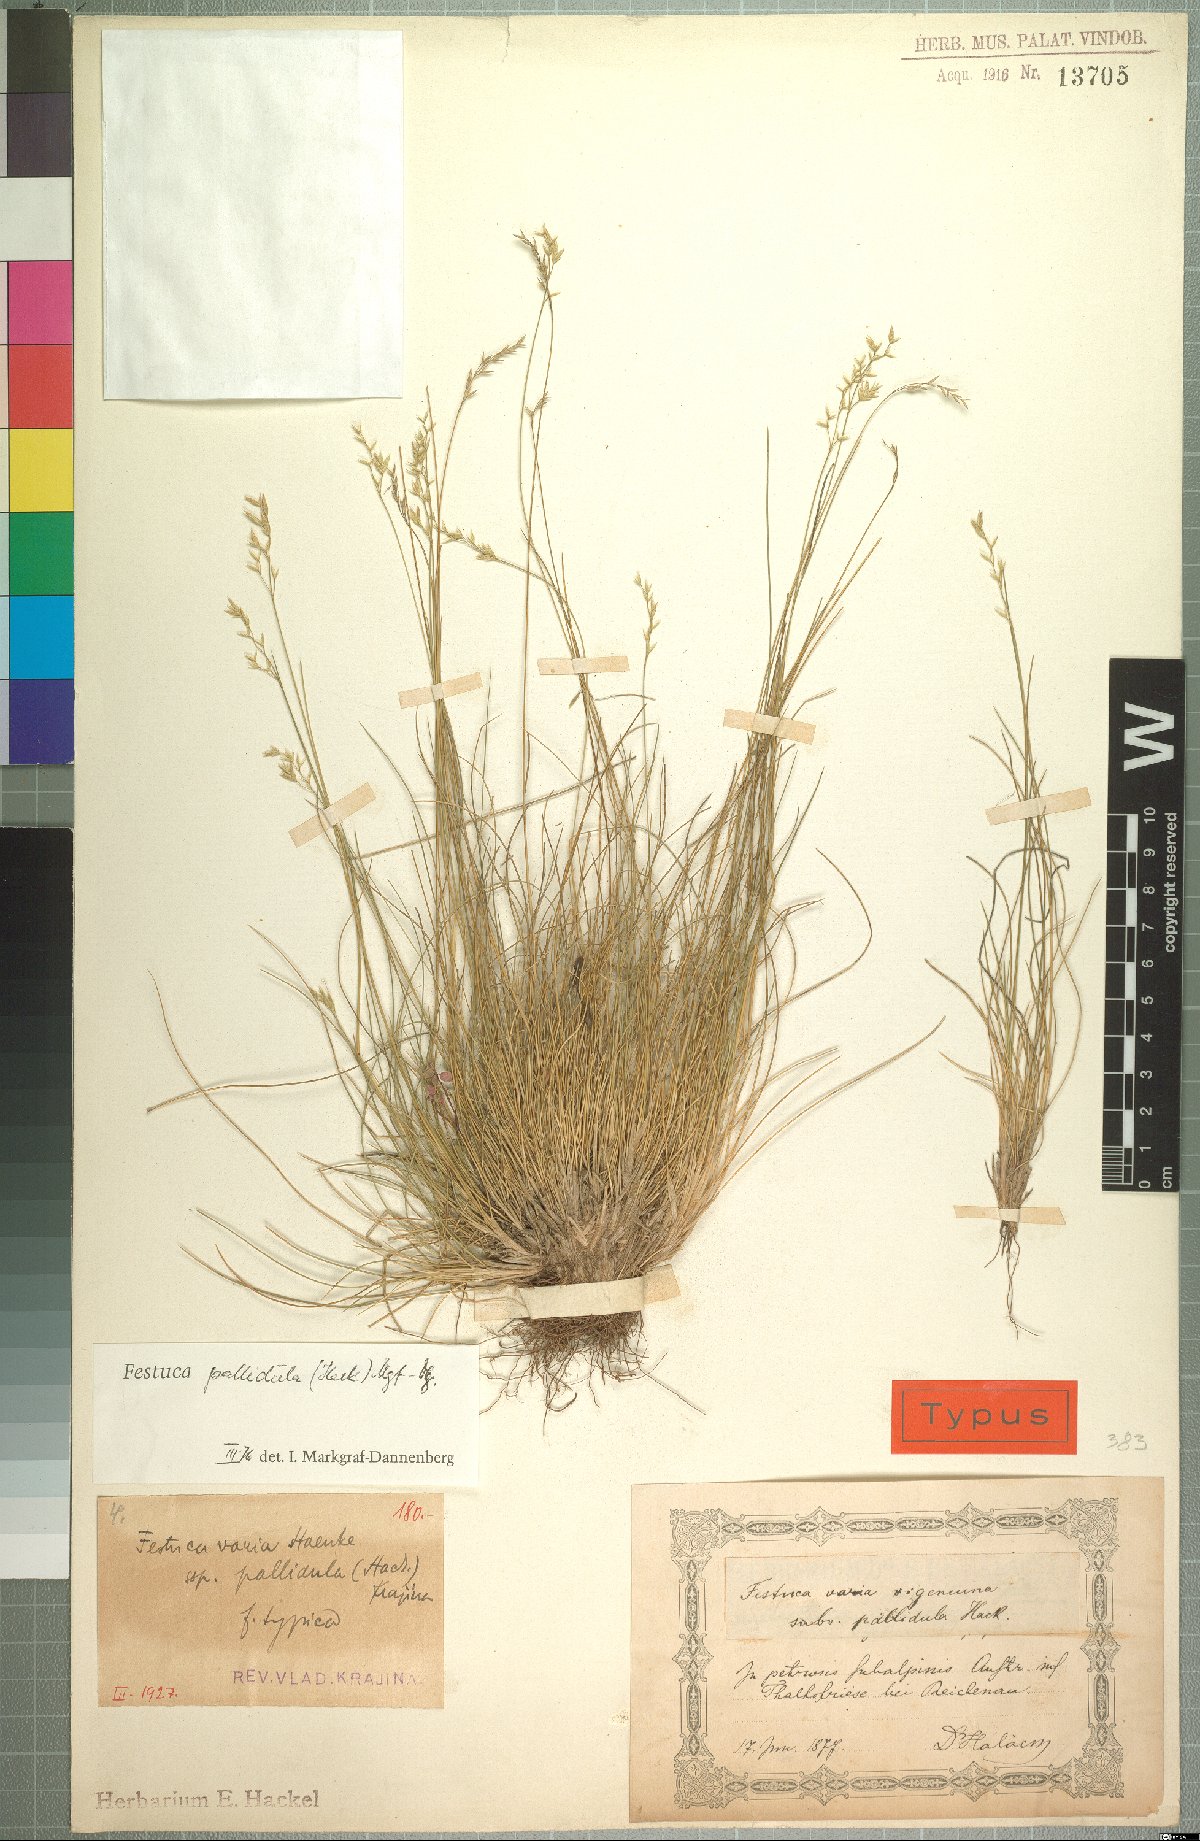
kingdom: Plantae
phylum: Tracheophyta
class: Liliopsida
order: Poales
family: Poaceae
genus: Festuca
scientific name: Festuca varia
